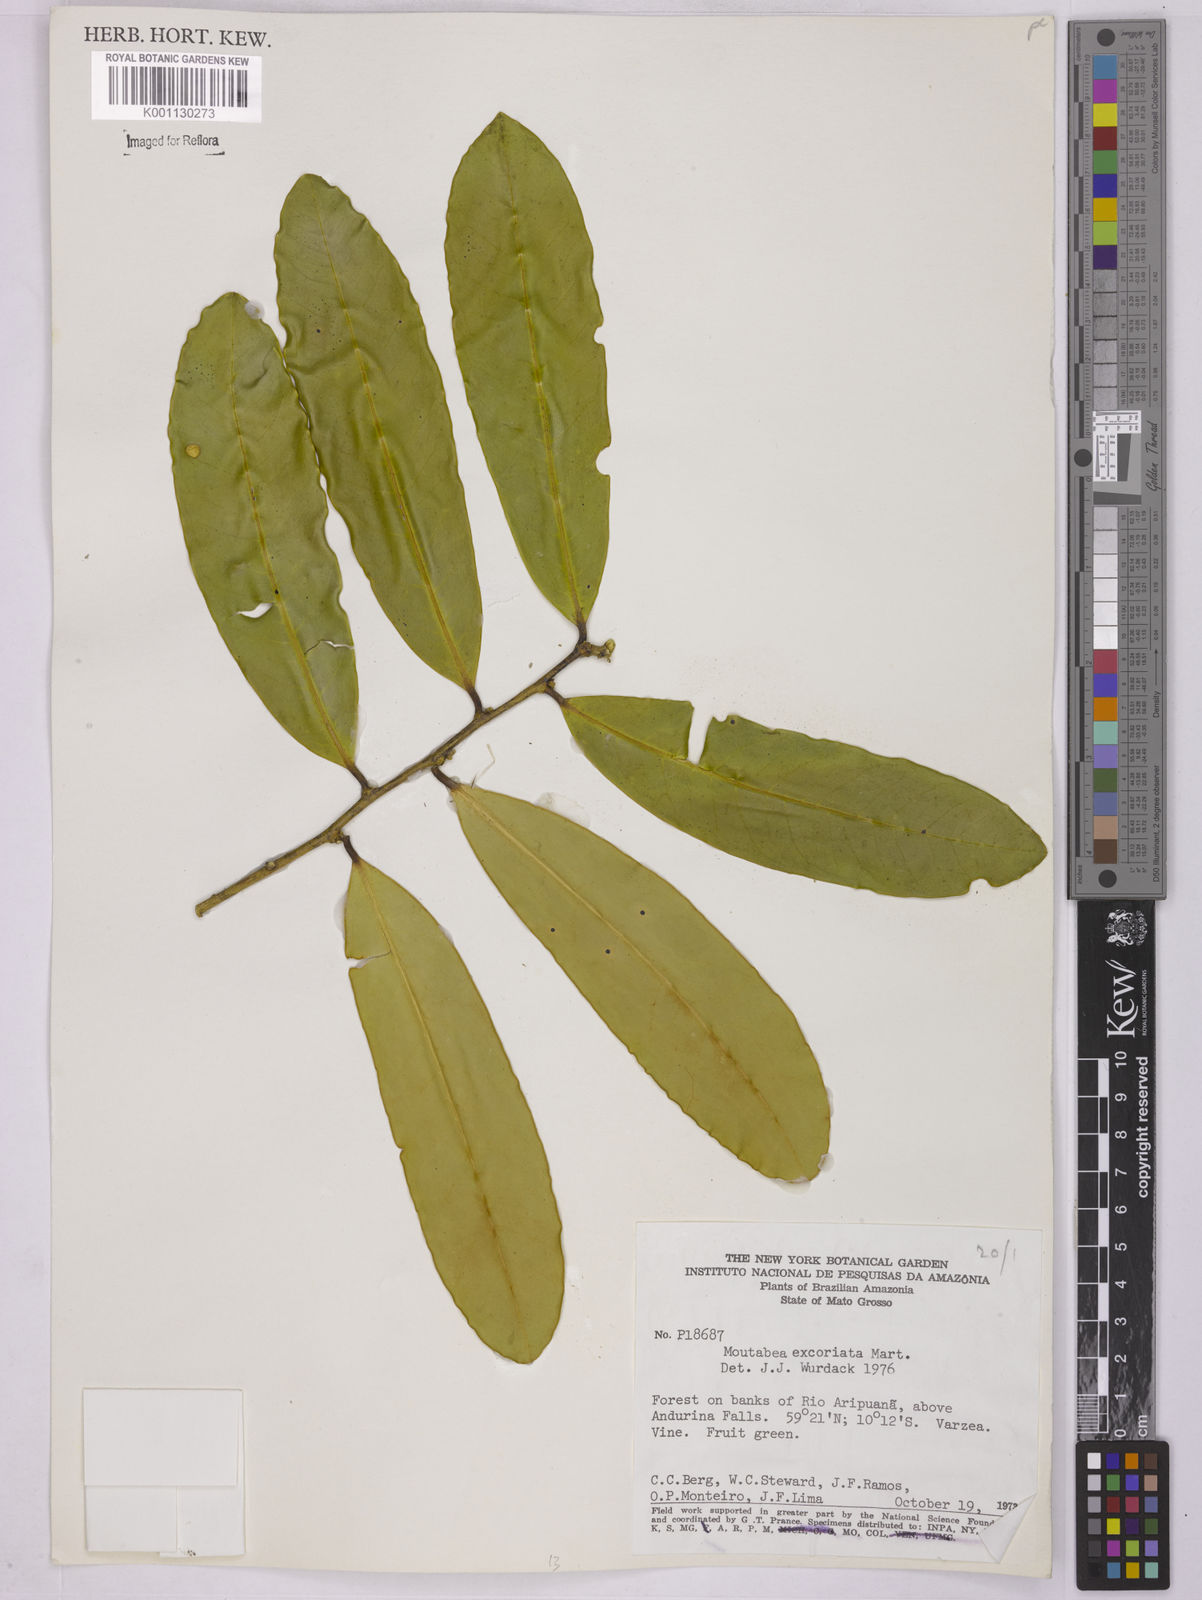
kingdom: Plantae
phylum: Tracheophyta
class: Magnoliopsida
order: Fabales
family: Polygalaceae
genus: Moutabea
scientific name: Moutabea excoriata
